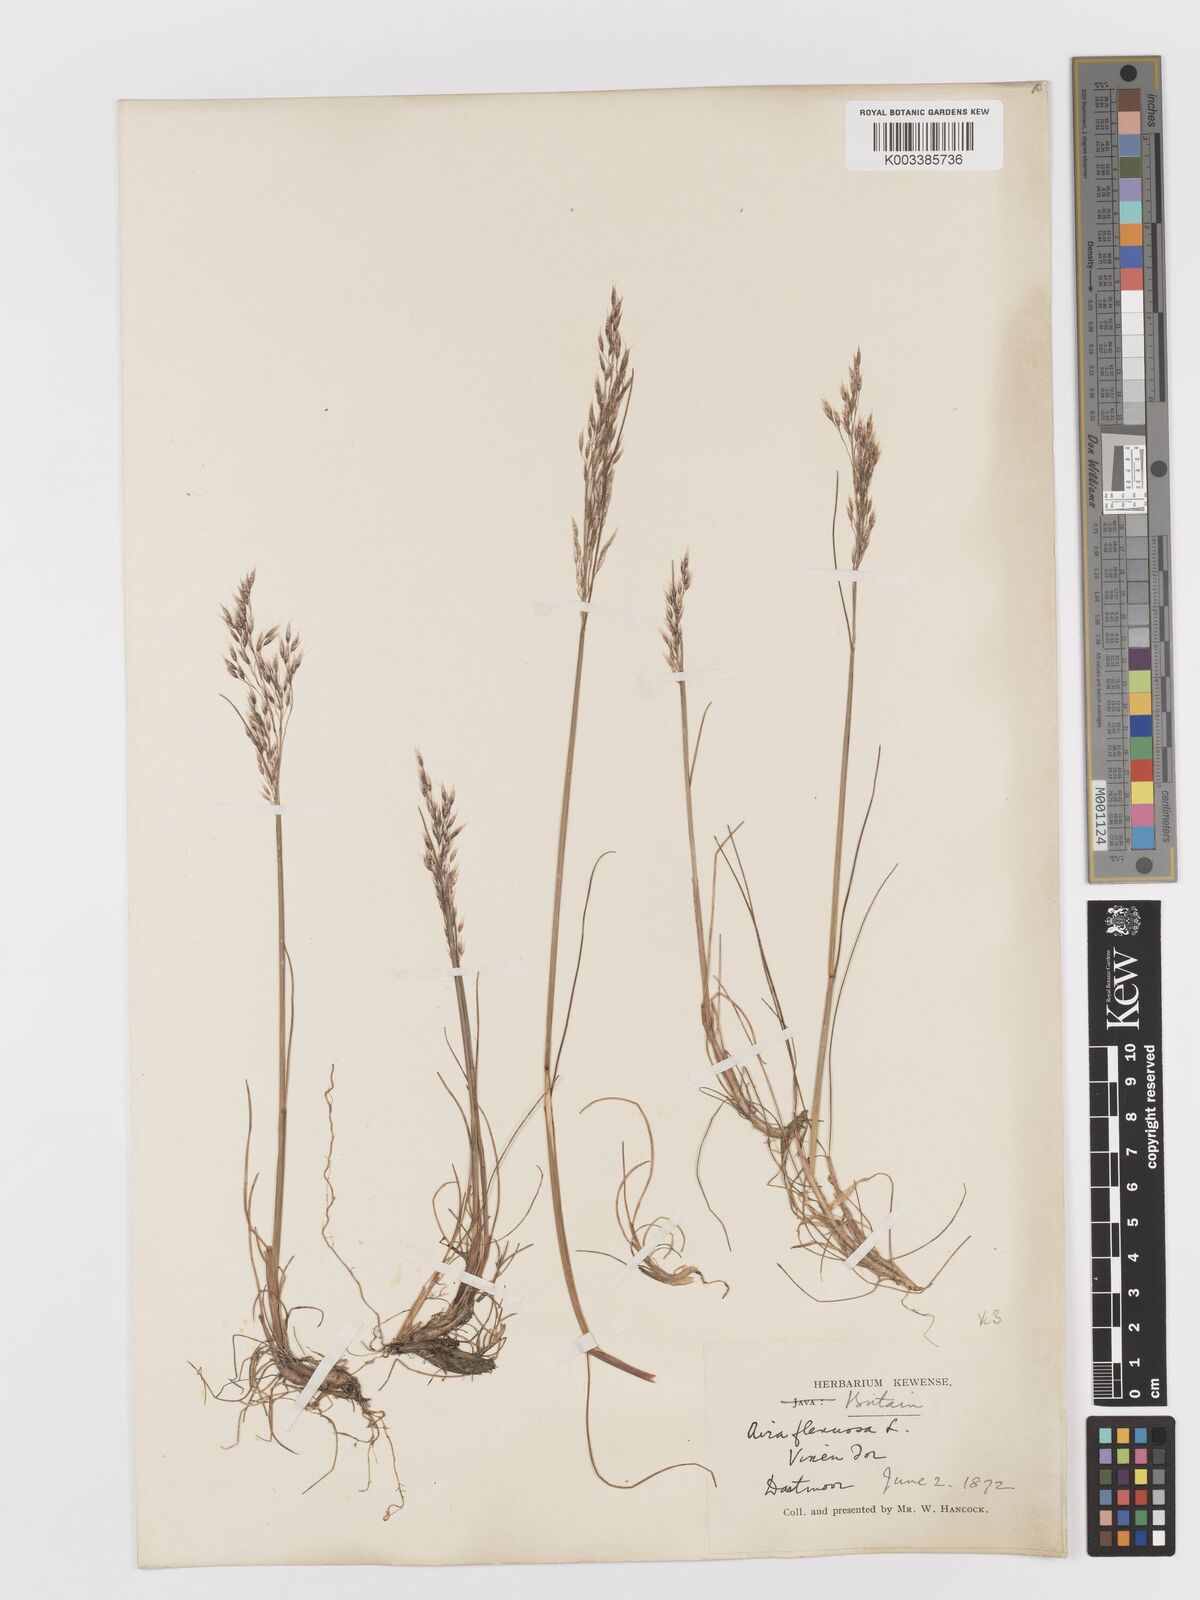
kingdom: Plantae
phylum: Tracheophyta
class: Liliopsida
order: Poales
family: Poaceae
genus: Avenella
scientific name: Avenella flexuosa
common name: Wavy hairgrass
